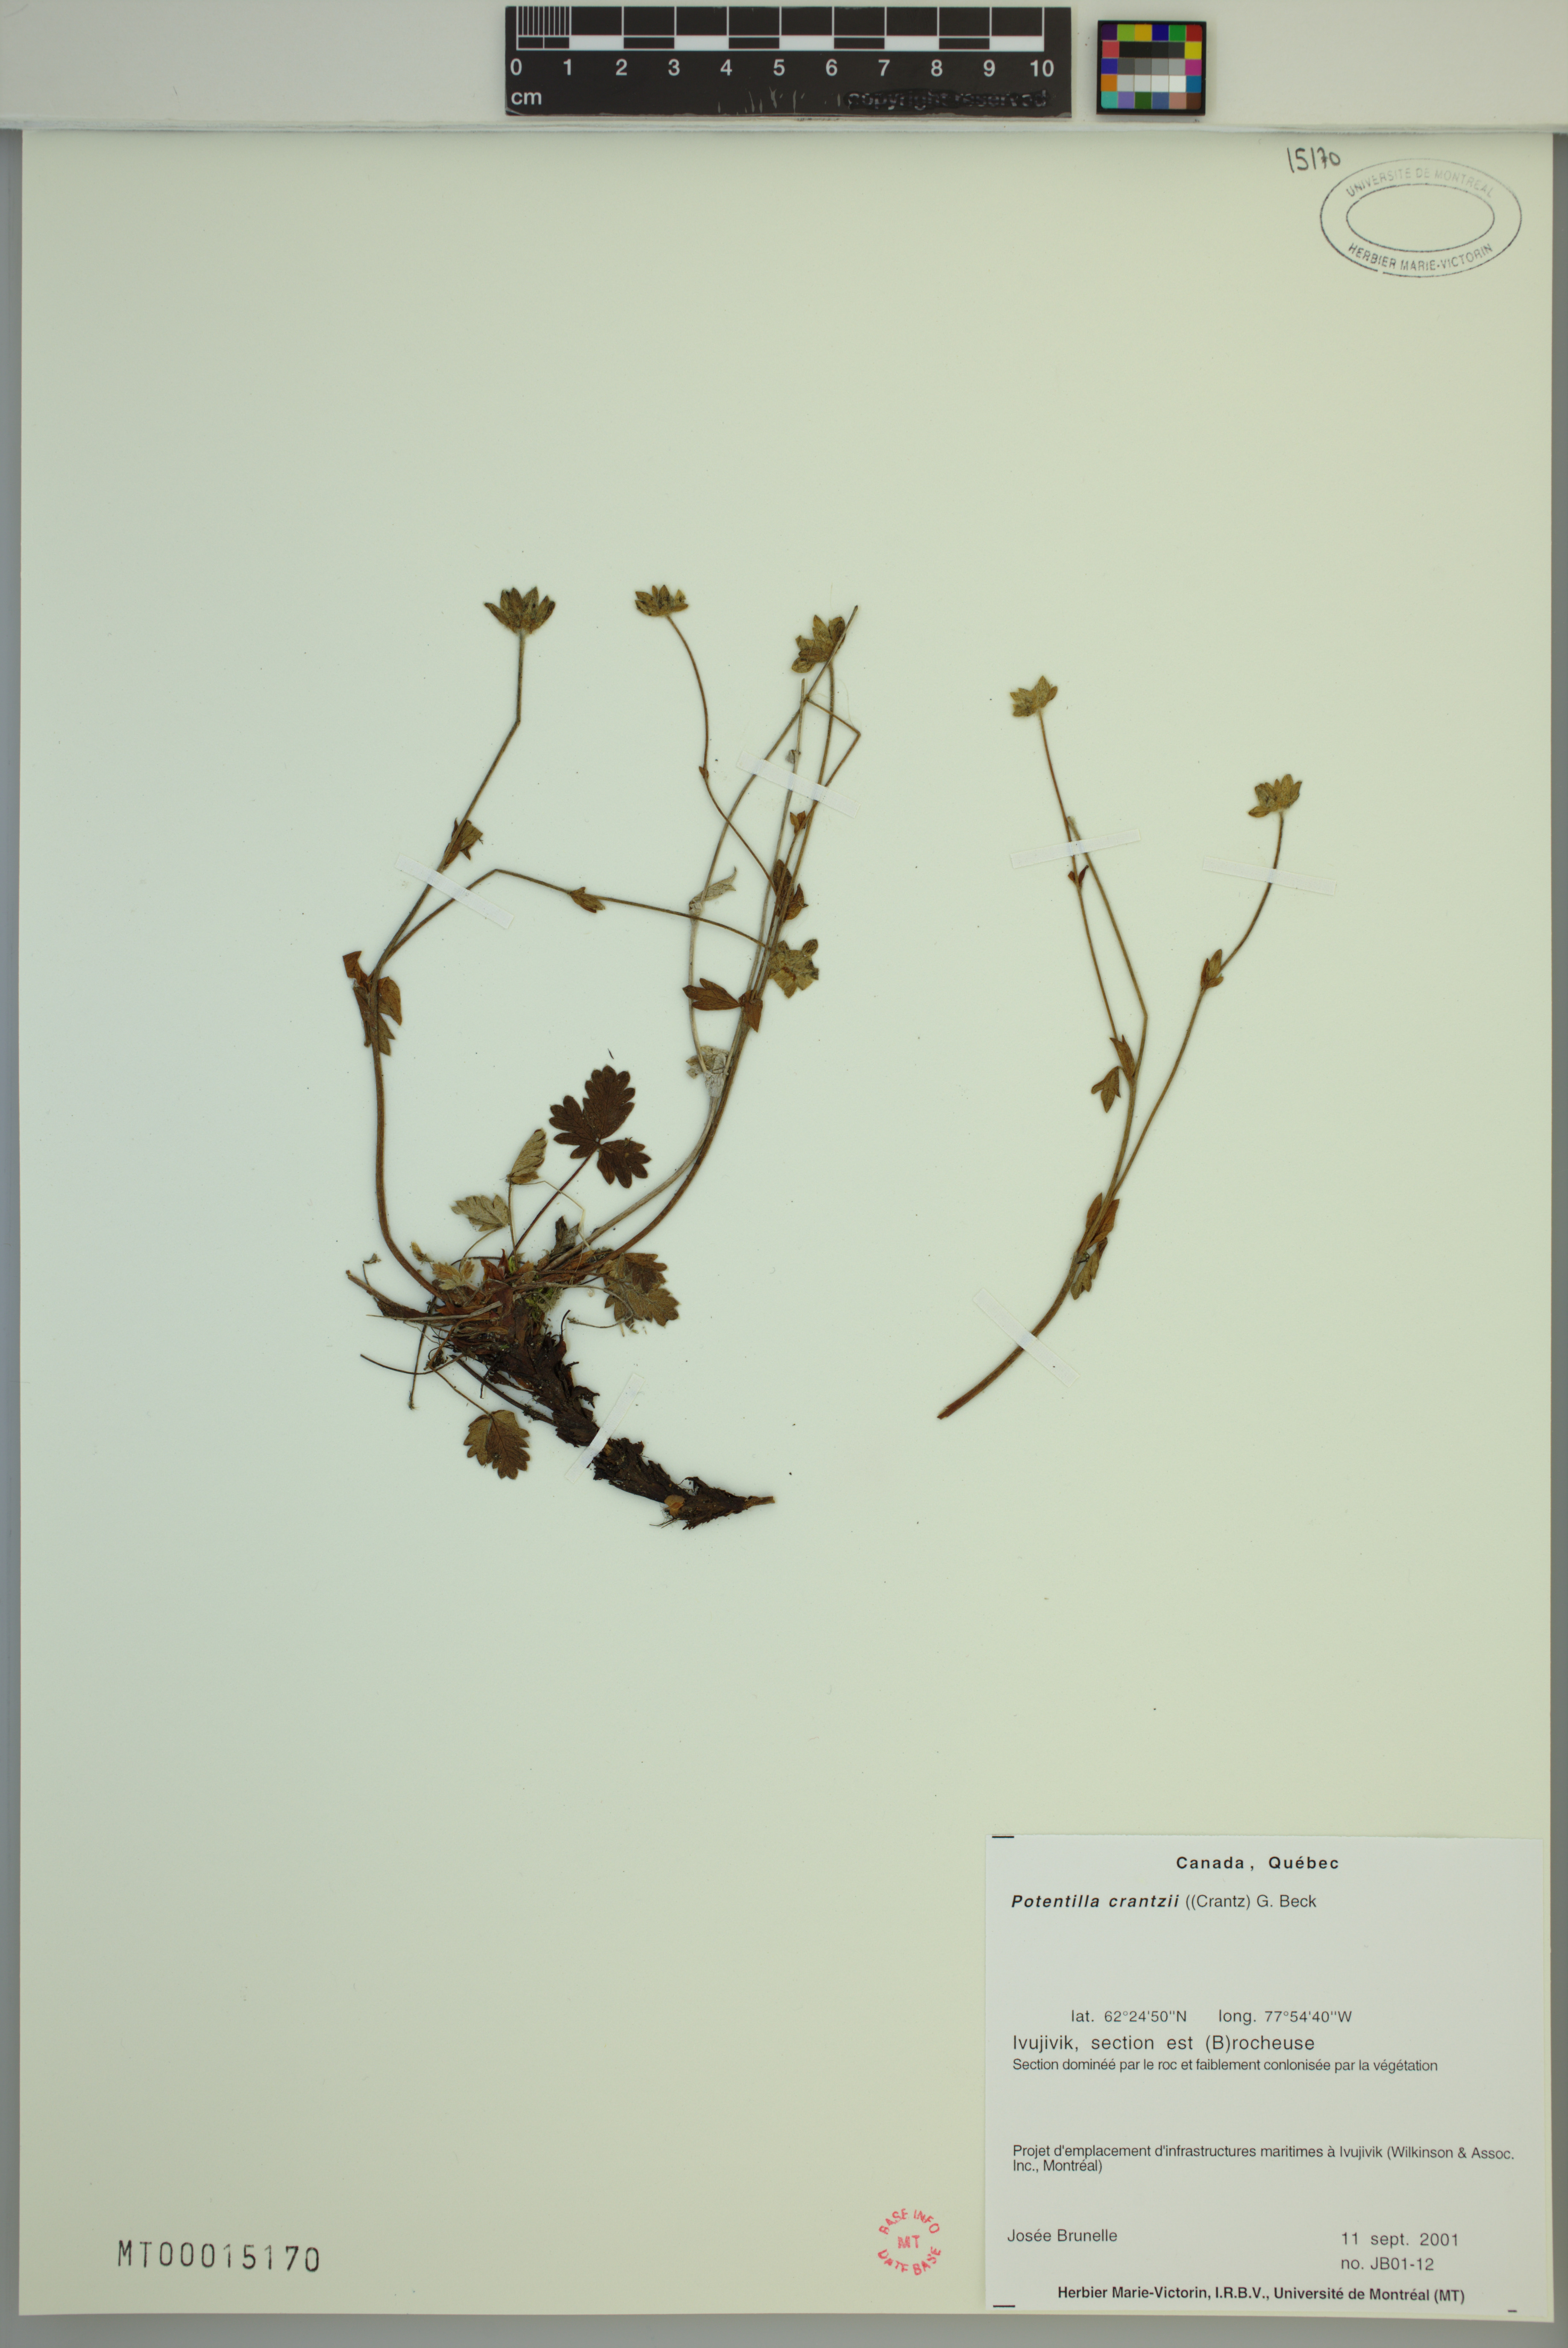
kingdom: Plantae
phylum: Tracheophyta
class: Magnoliopsida
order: Rosales
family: Rosaceae
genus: Potentilla
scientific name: Potentilla crantzii
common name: Alpine cinquefoil
